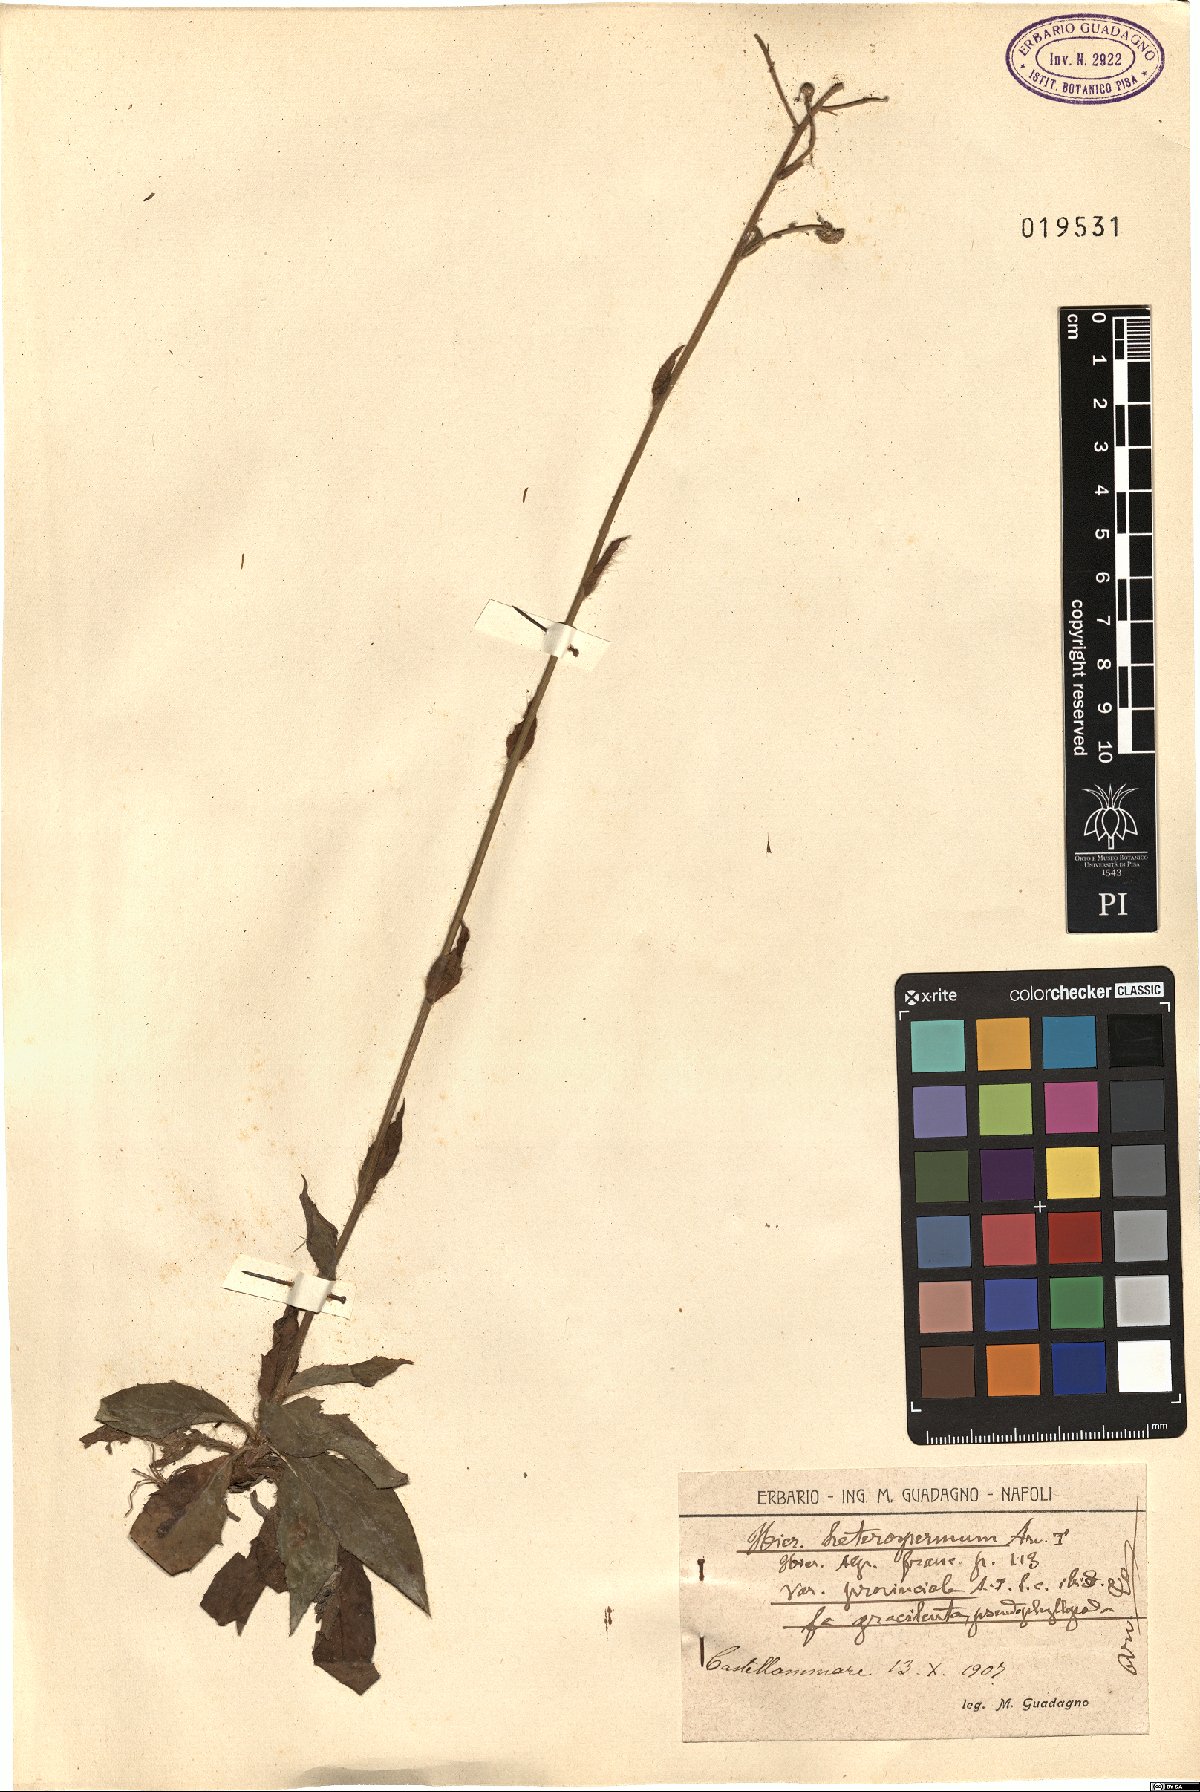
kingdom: Plantae
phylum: Tracheophyta
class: Magnoliopsida
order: Asterales
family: Asteraceae
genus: Hieracium
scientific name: Hieracium racemosum
